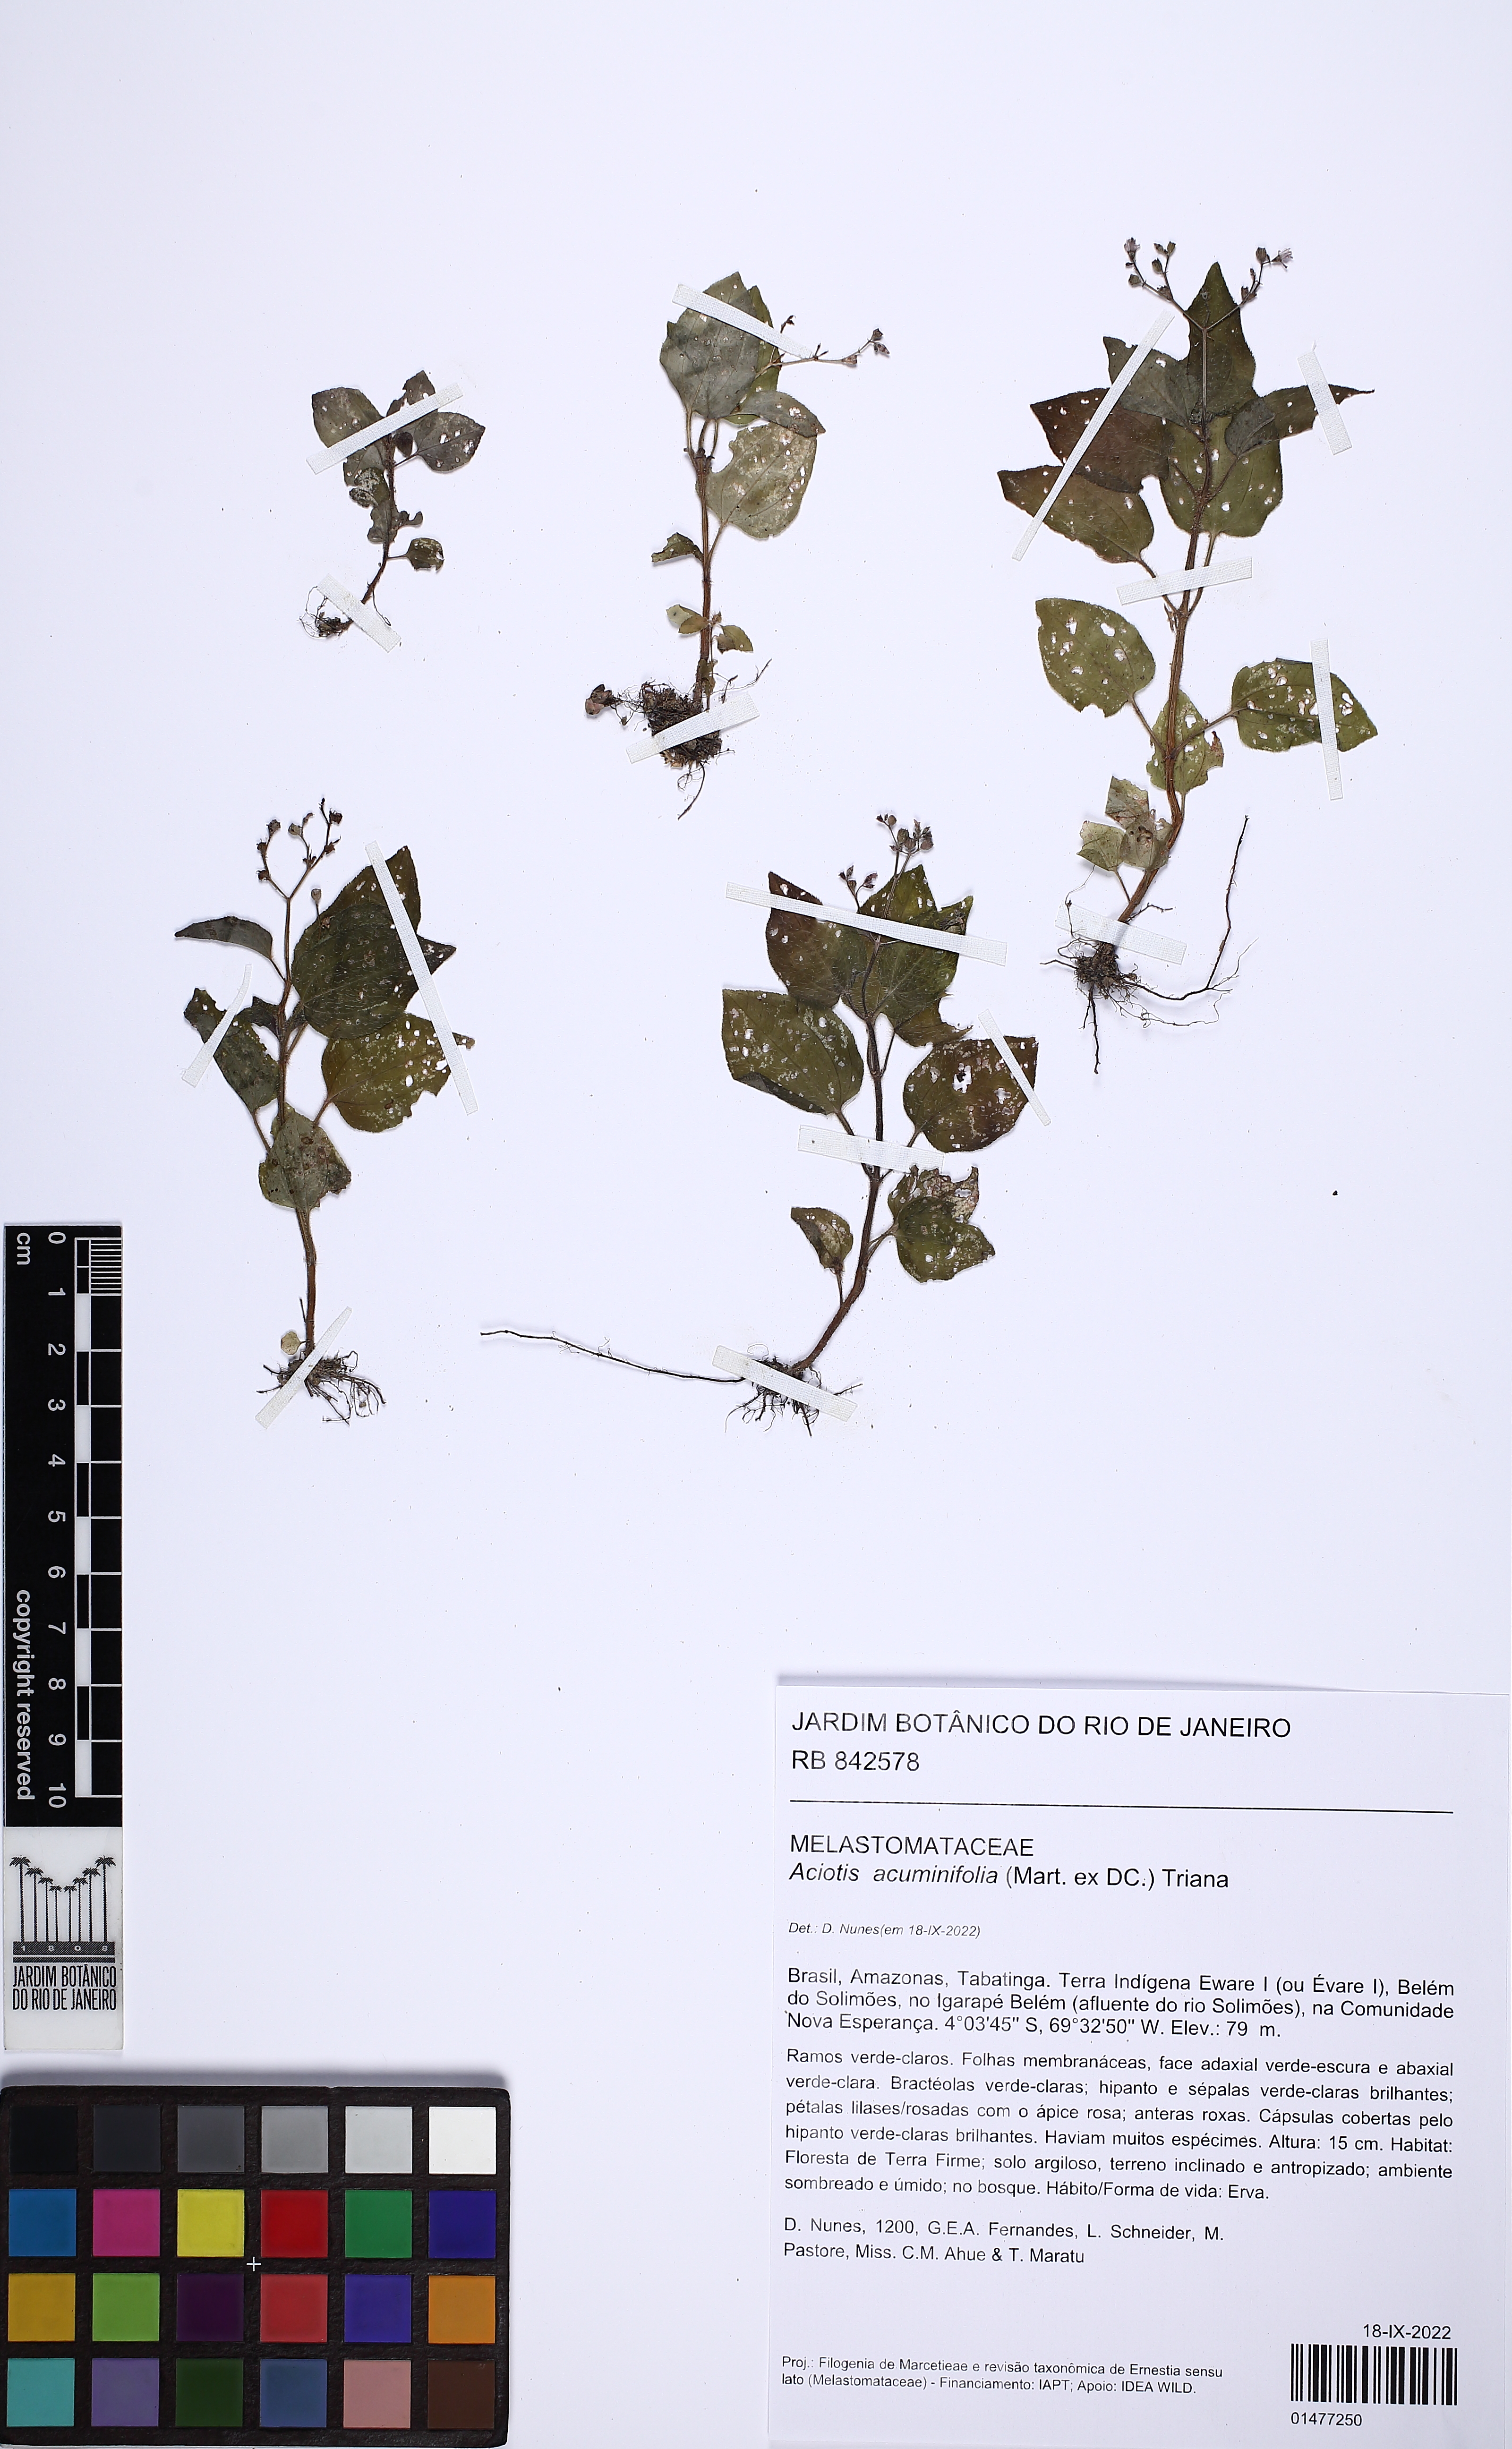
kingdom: Plantae
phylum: Tracheophyta
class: Magnoliopsida
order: Myrtales
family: Melastomataceae
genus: Aciotis
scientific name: Aciotis acuminifolia
